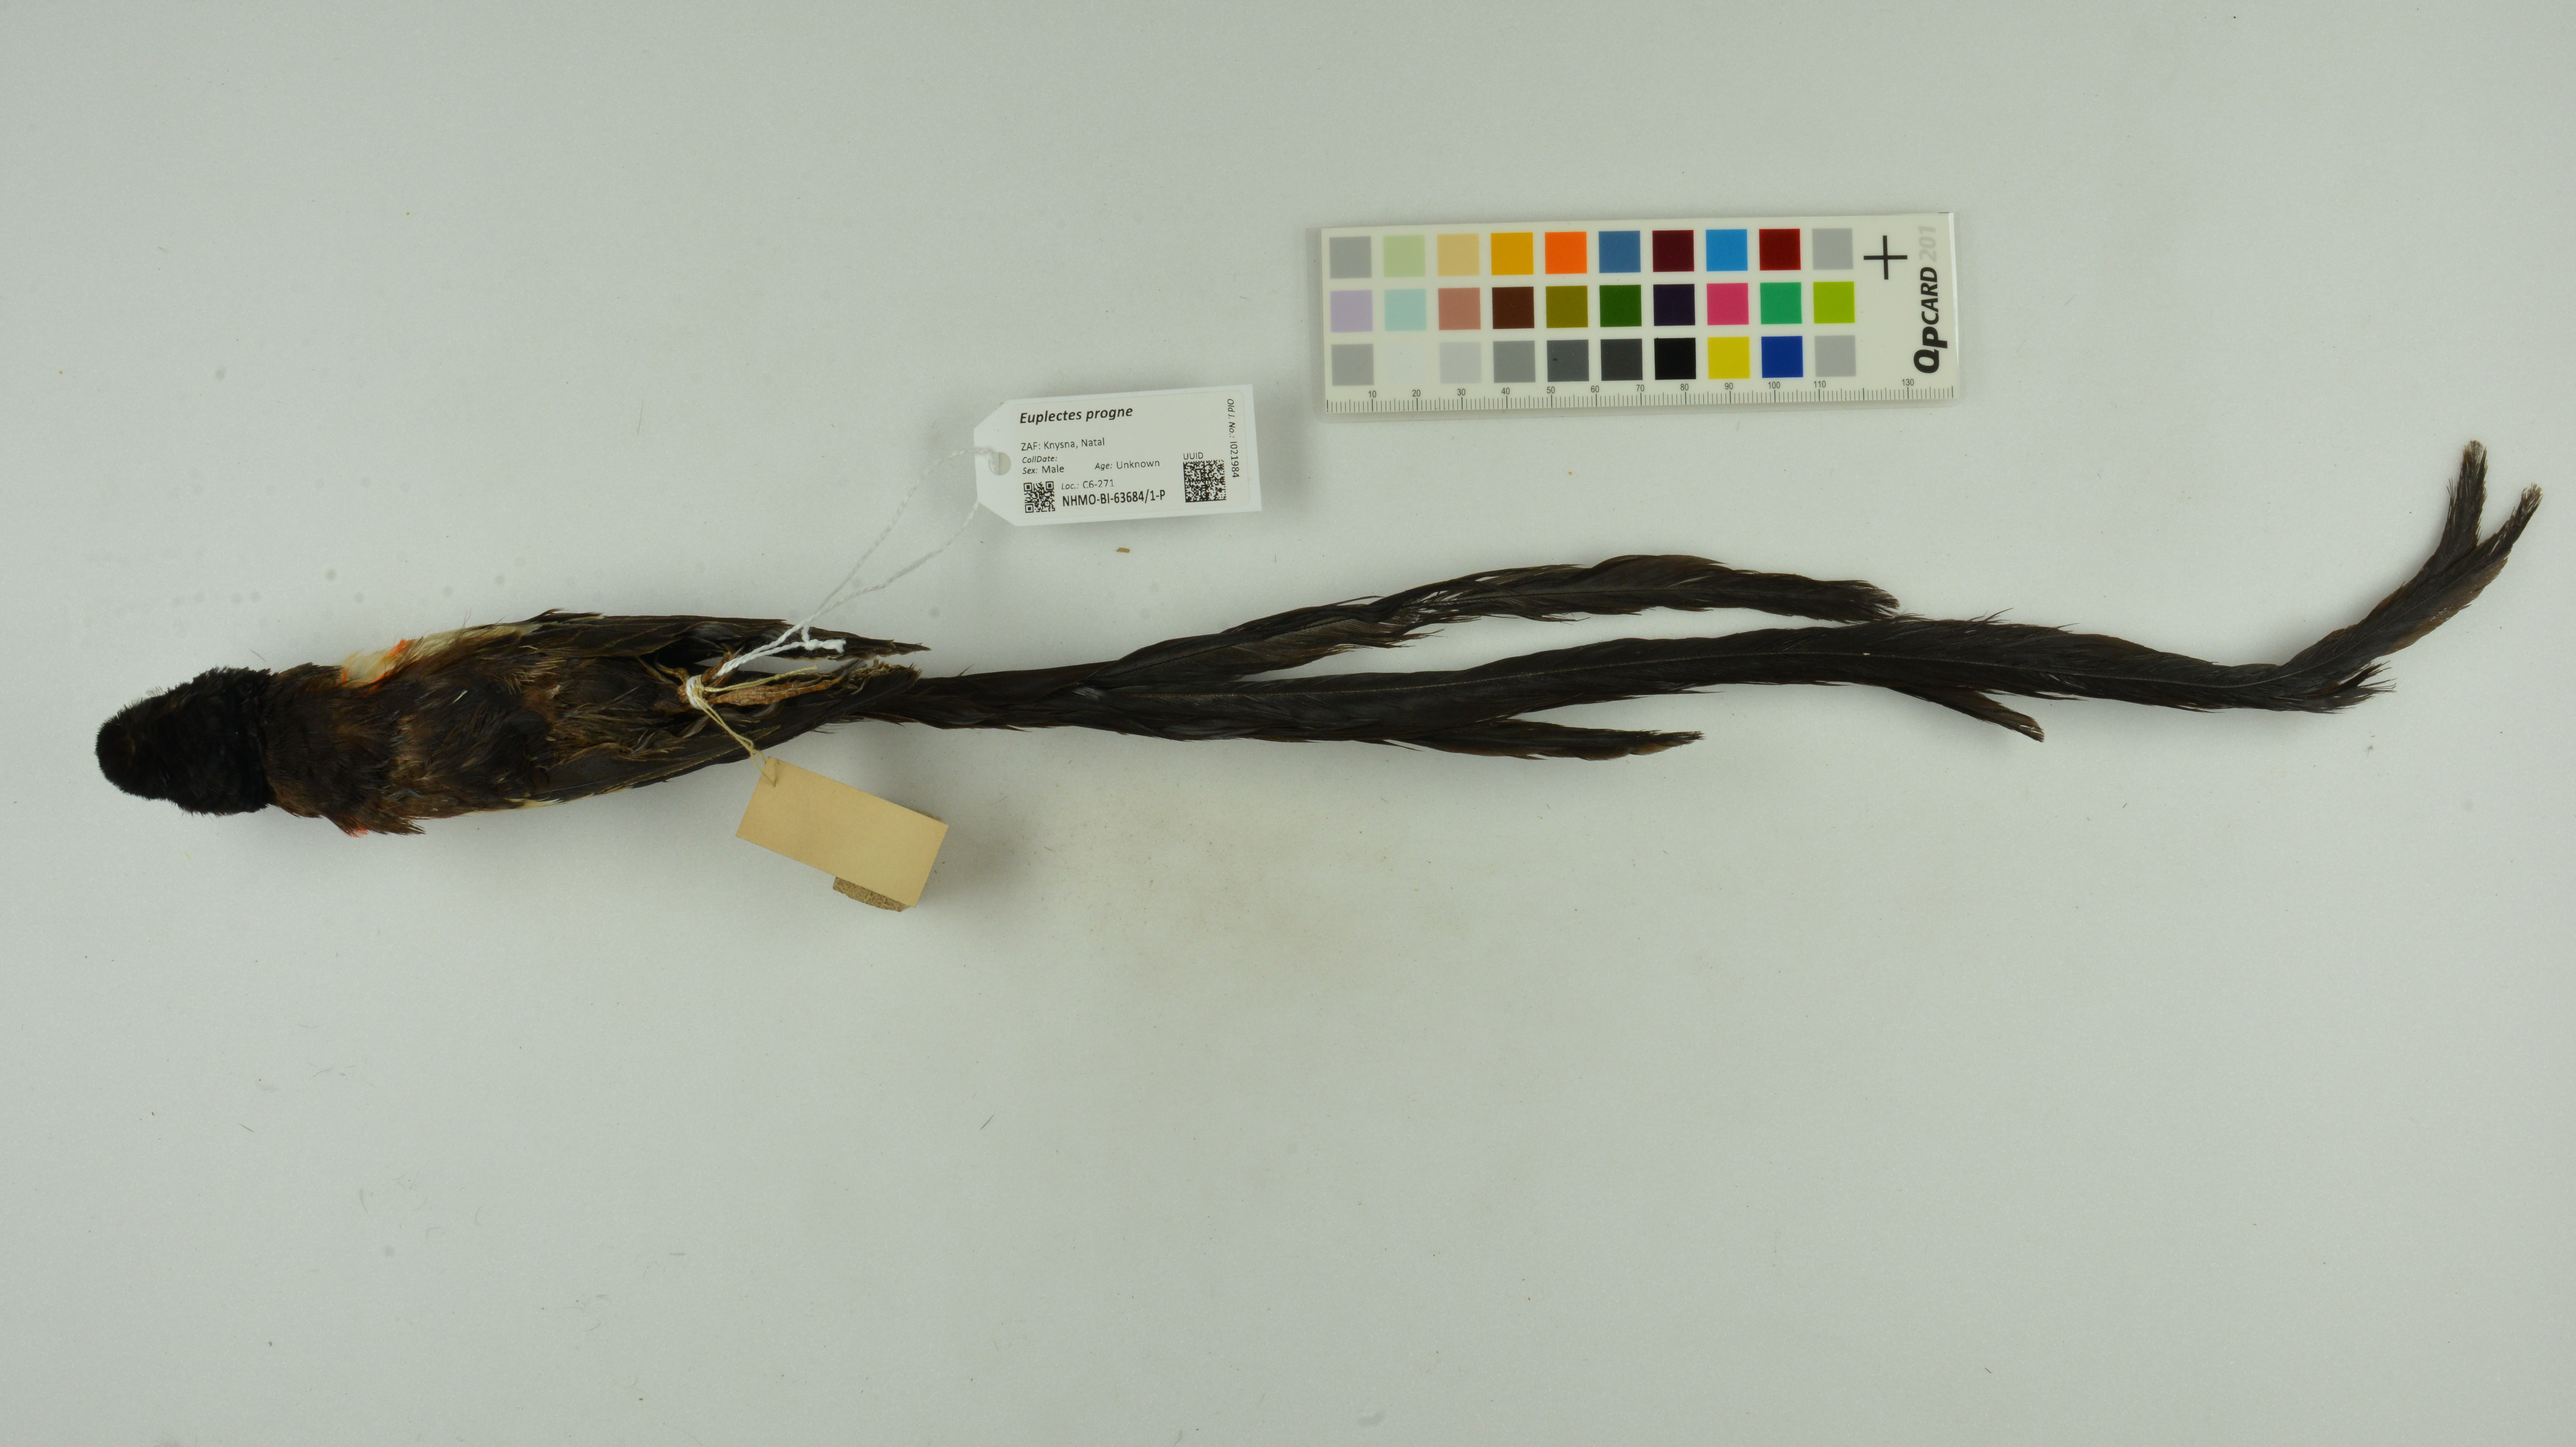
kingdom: Animalia
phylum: Chordata
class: Aves
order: Passeriformes
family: Ploceidae
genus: Euplectes
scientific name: Euplectes progne
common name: Long-tailed widowbird
